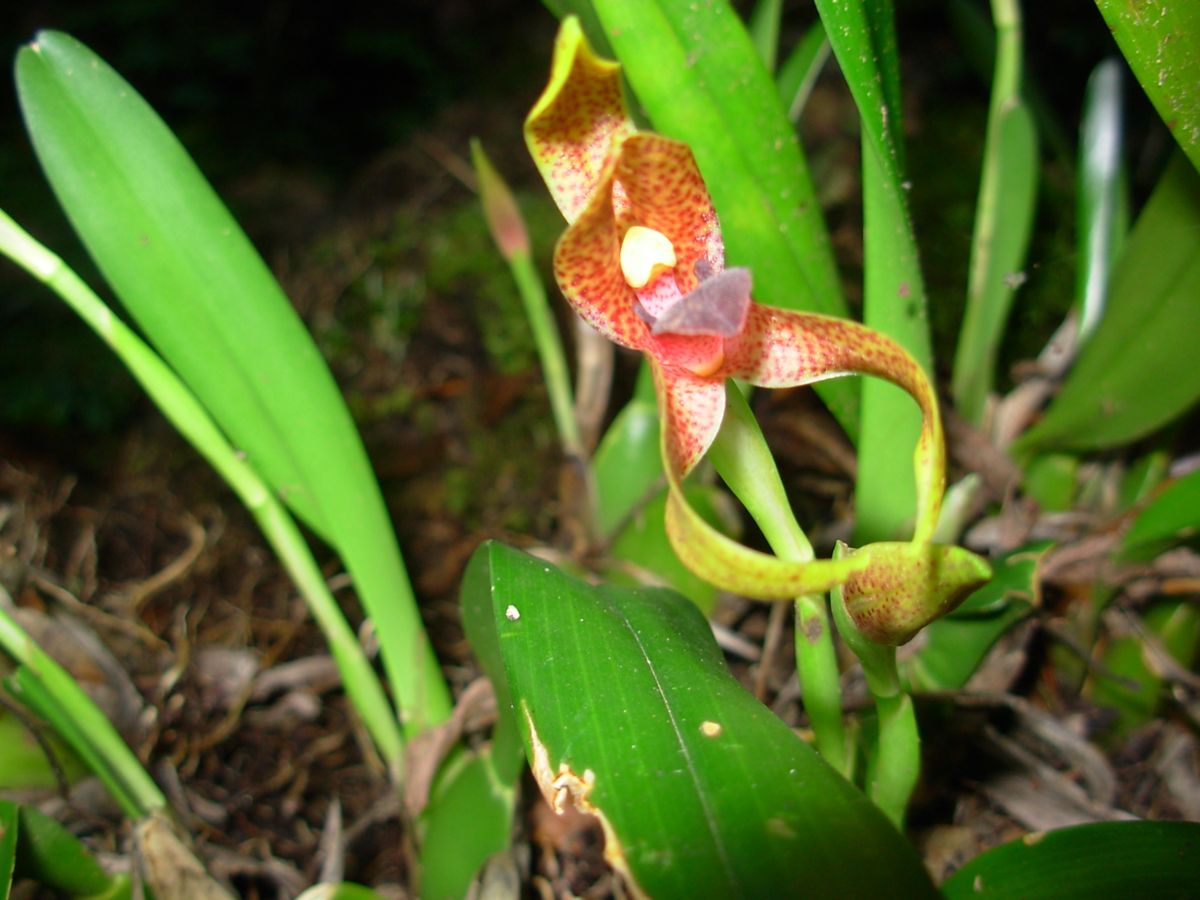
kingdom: Plantae
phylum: Tracheophyta
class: Liliopsida
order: Asparagales
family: Orchidaceae
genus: Maxillaria
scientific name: Maxillaria cucullata
